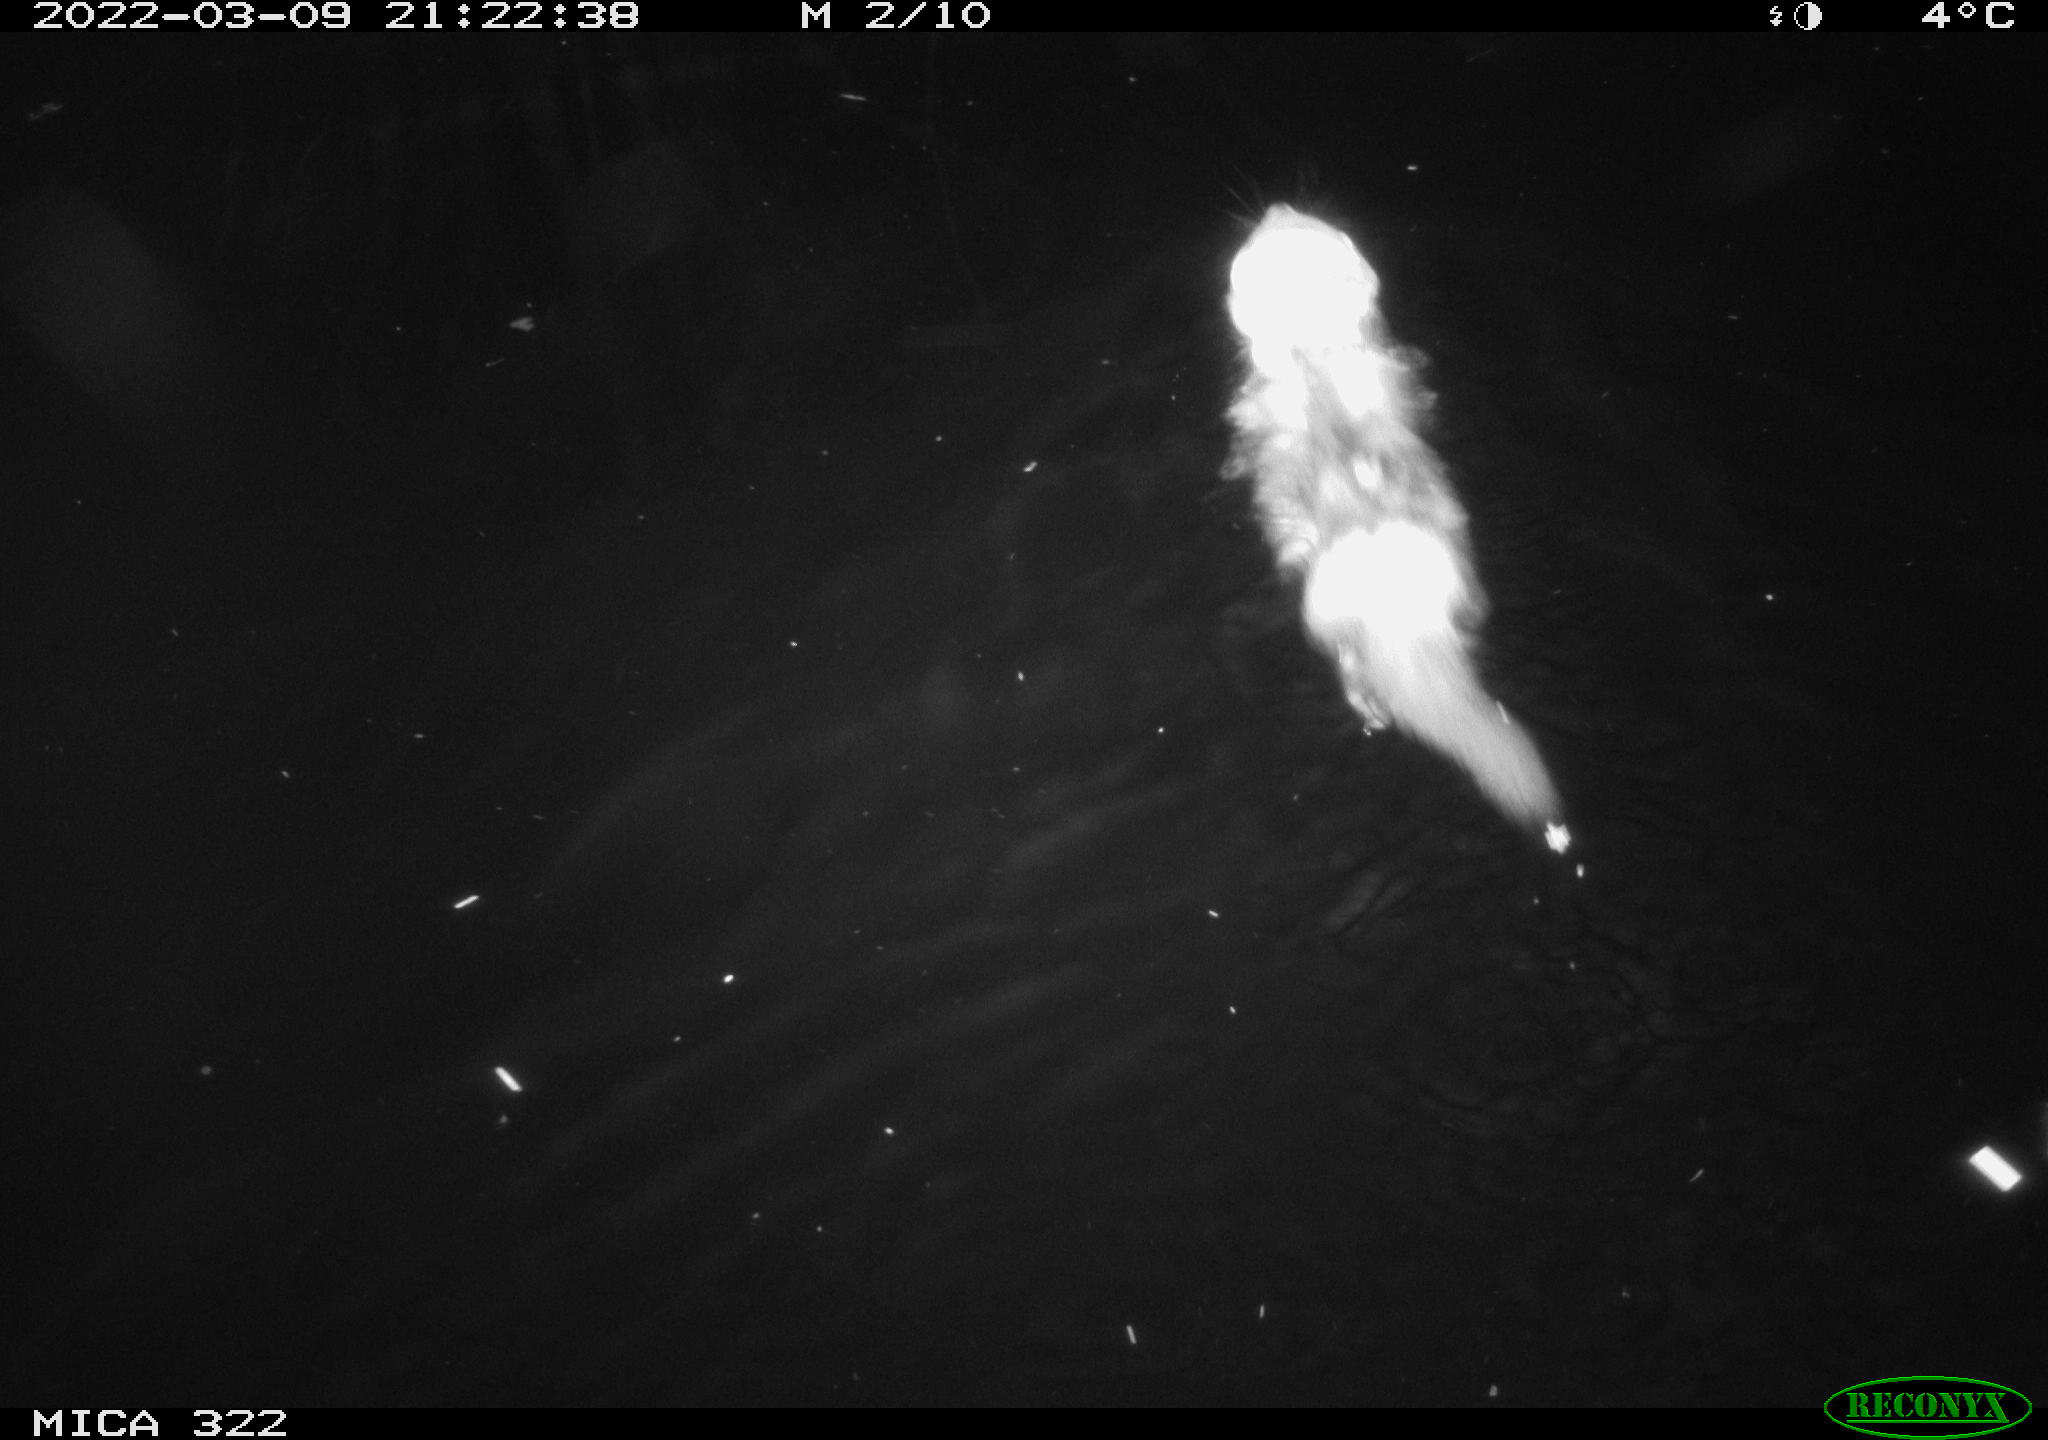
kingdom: Animalia
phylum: Chordata
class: Mammalia
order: Carnivora
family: Mustelidae
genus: Mustela
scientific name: Mustela putorius
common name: European polecat
